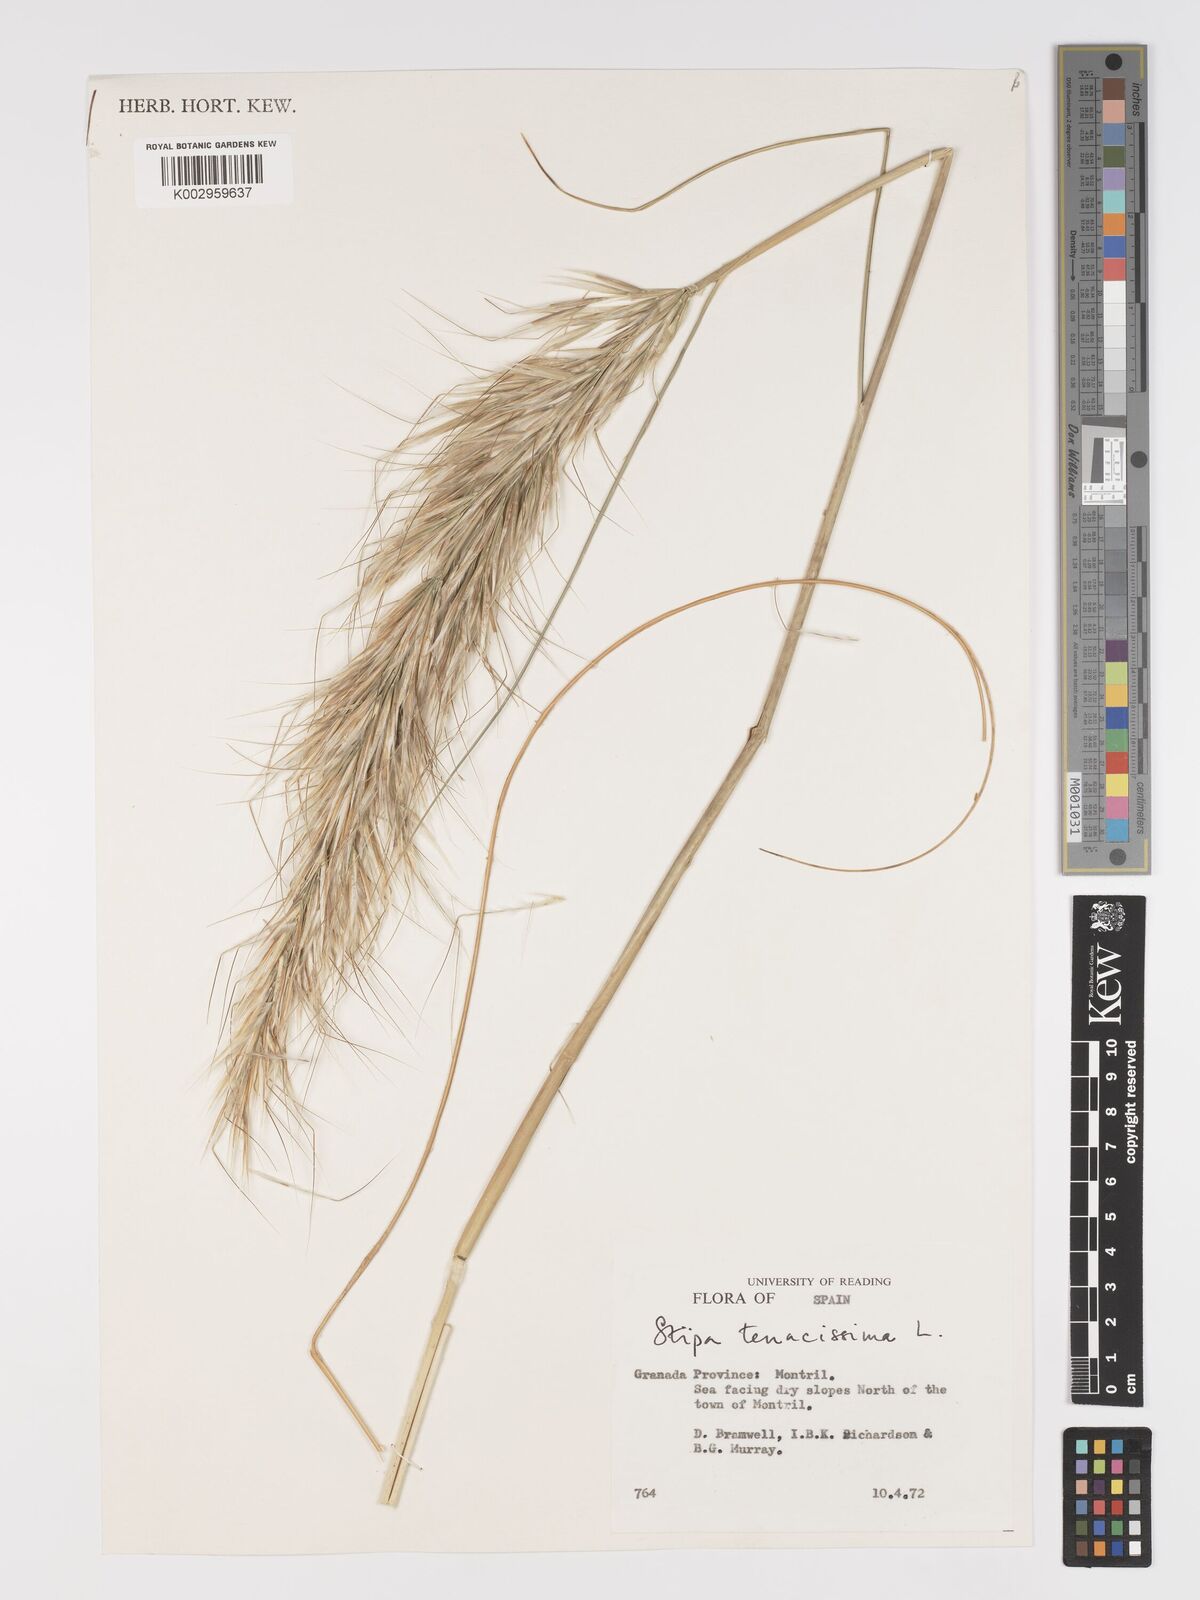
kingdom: Plantae
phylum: Tracheophyta
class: Liliopsida
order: Poales
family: Poaceae
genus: Macrochloa
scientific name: Macrochloa tenacissima
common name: Alfa grass
